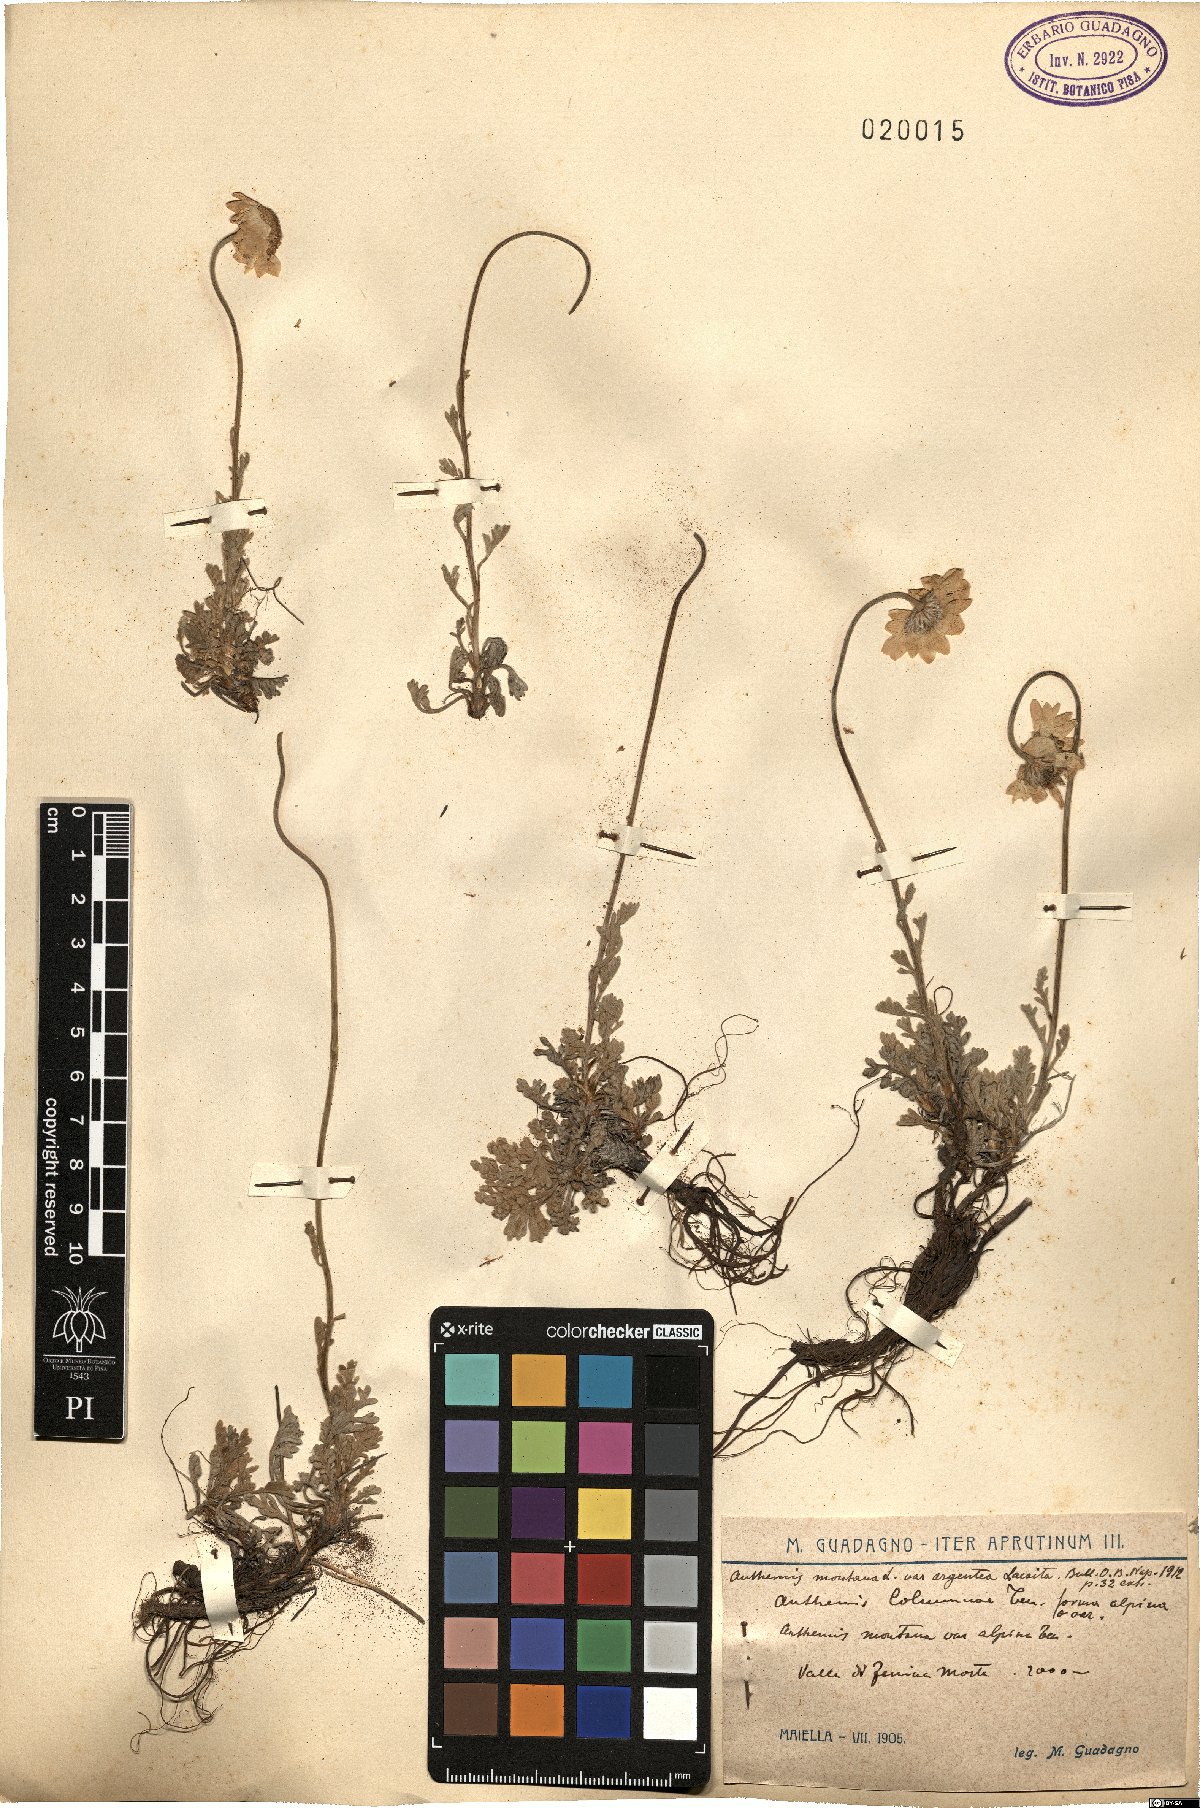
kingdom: Plantae
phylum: Tracheophyta
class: Magnoliopsida
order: Asterales
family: Asteraceae
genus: Anthemis
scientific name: Anthemis cretica
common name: Mountain dog-daisy
